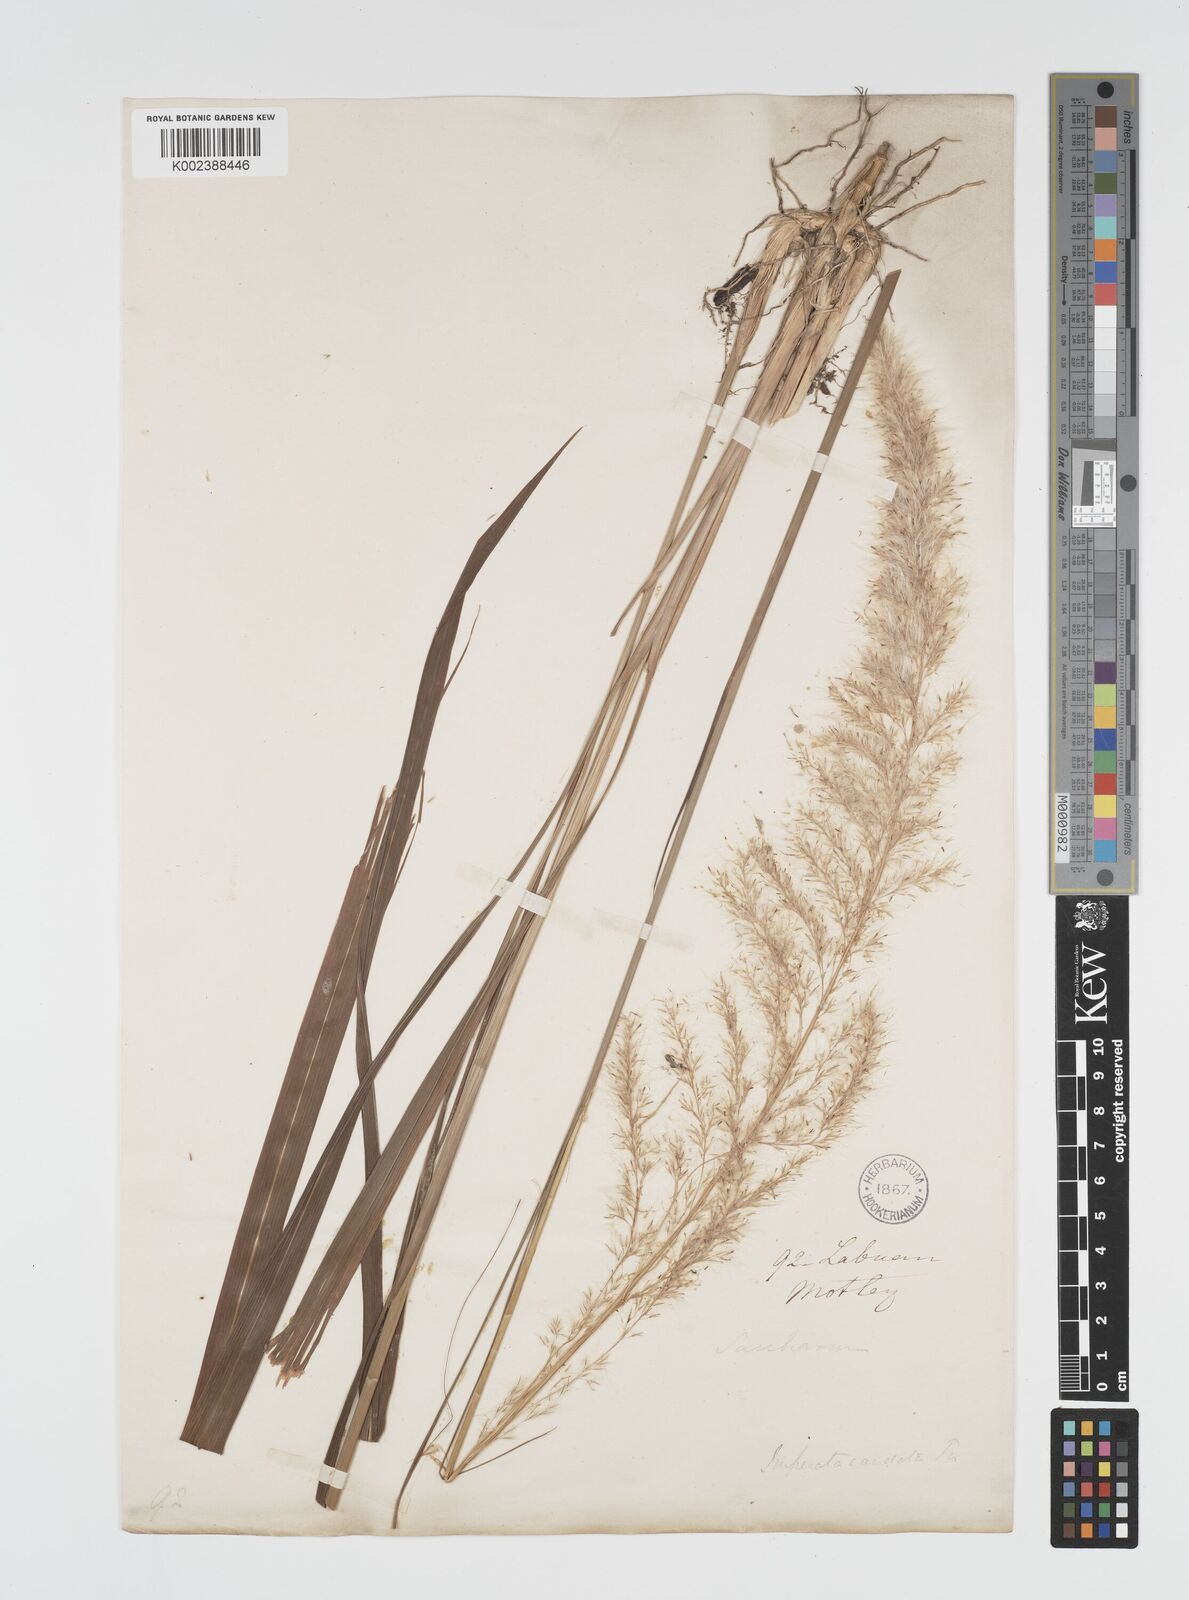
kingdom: Plantae
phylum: Tracheophyta
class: Liliopsida
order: Poales
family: Poaceae
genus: Imperata
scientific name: Imperata conferta
